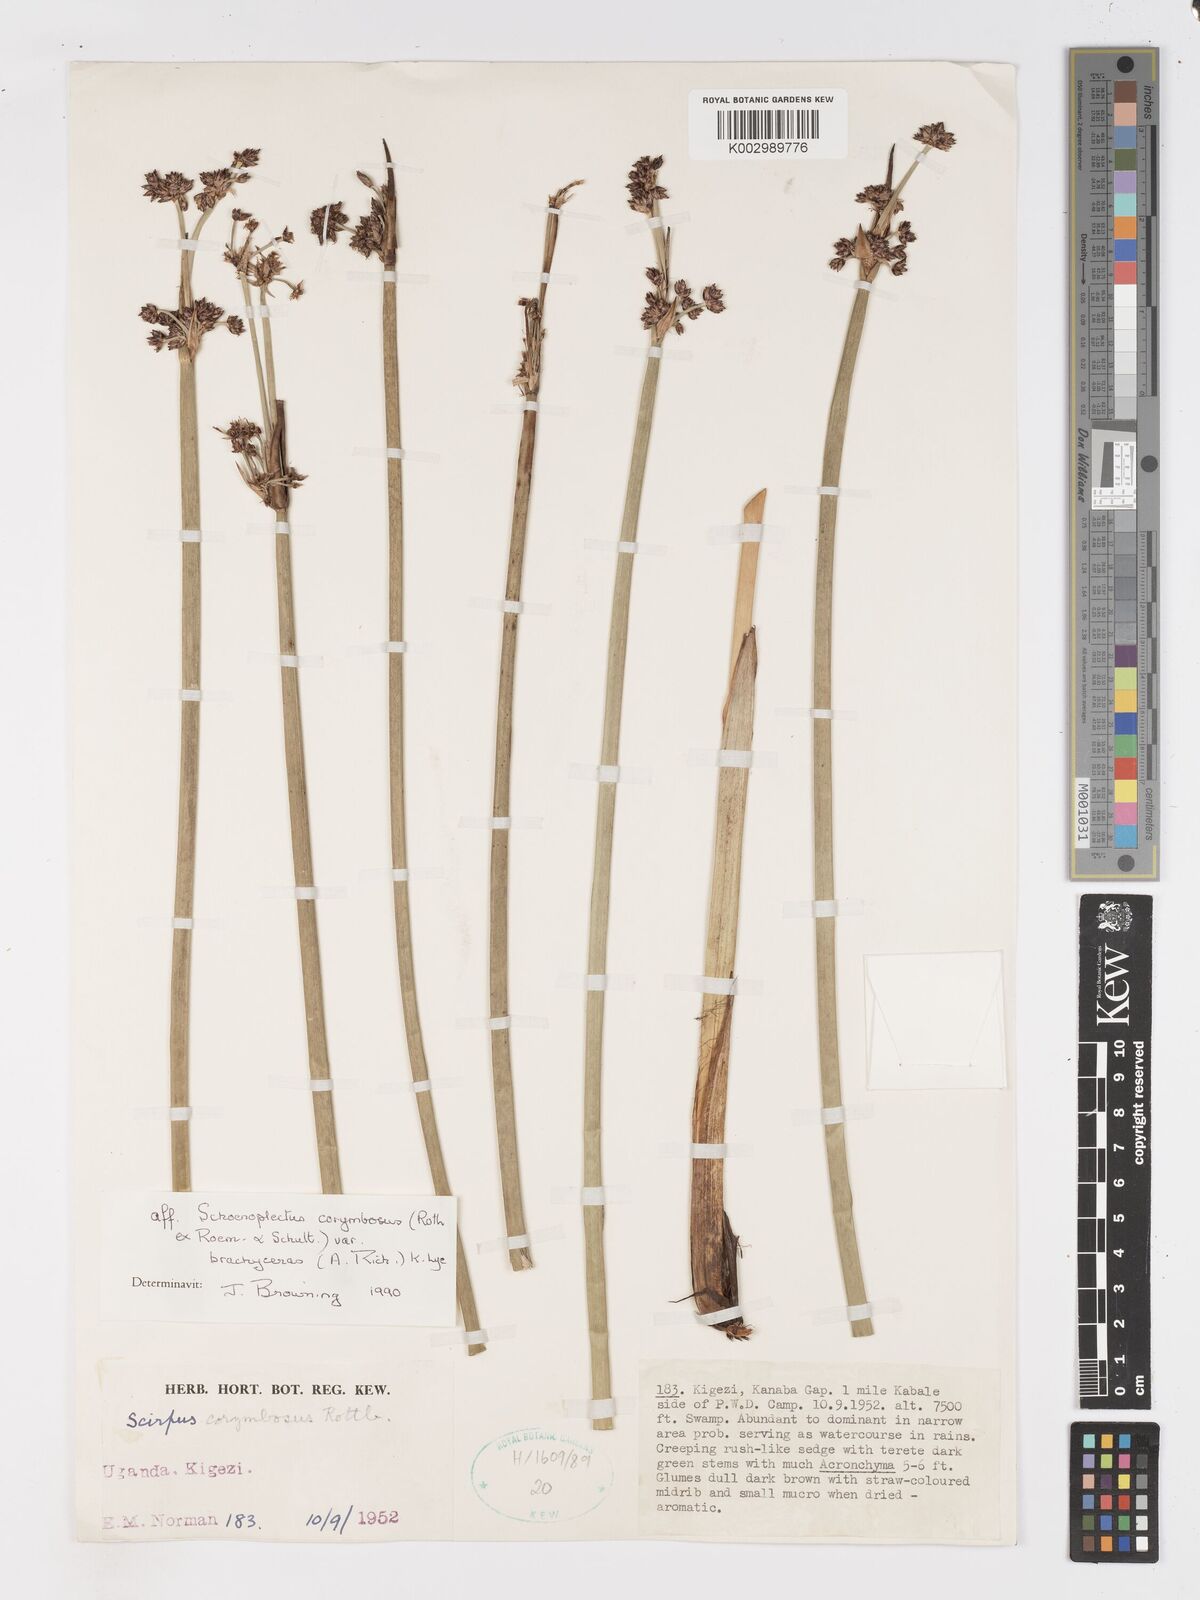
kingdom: Plantae
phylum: Tracheophyta
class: Liliopsida
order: Poales
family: Cyperaceae
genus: Schoenoplectiella
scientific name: Schoenoplectiella brachyceras
